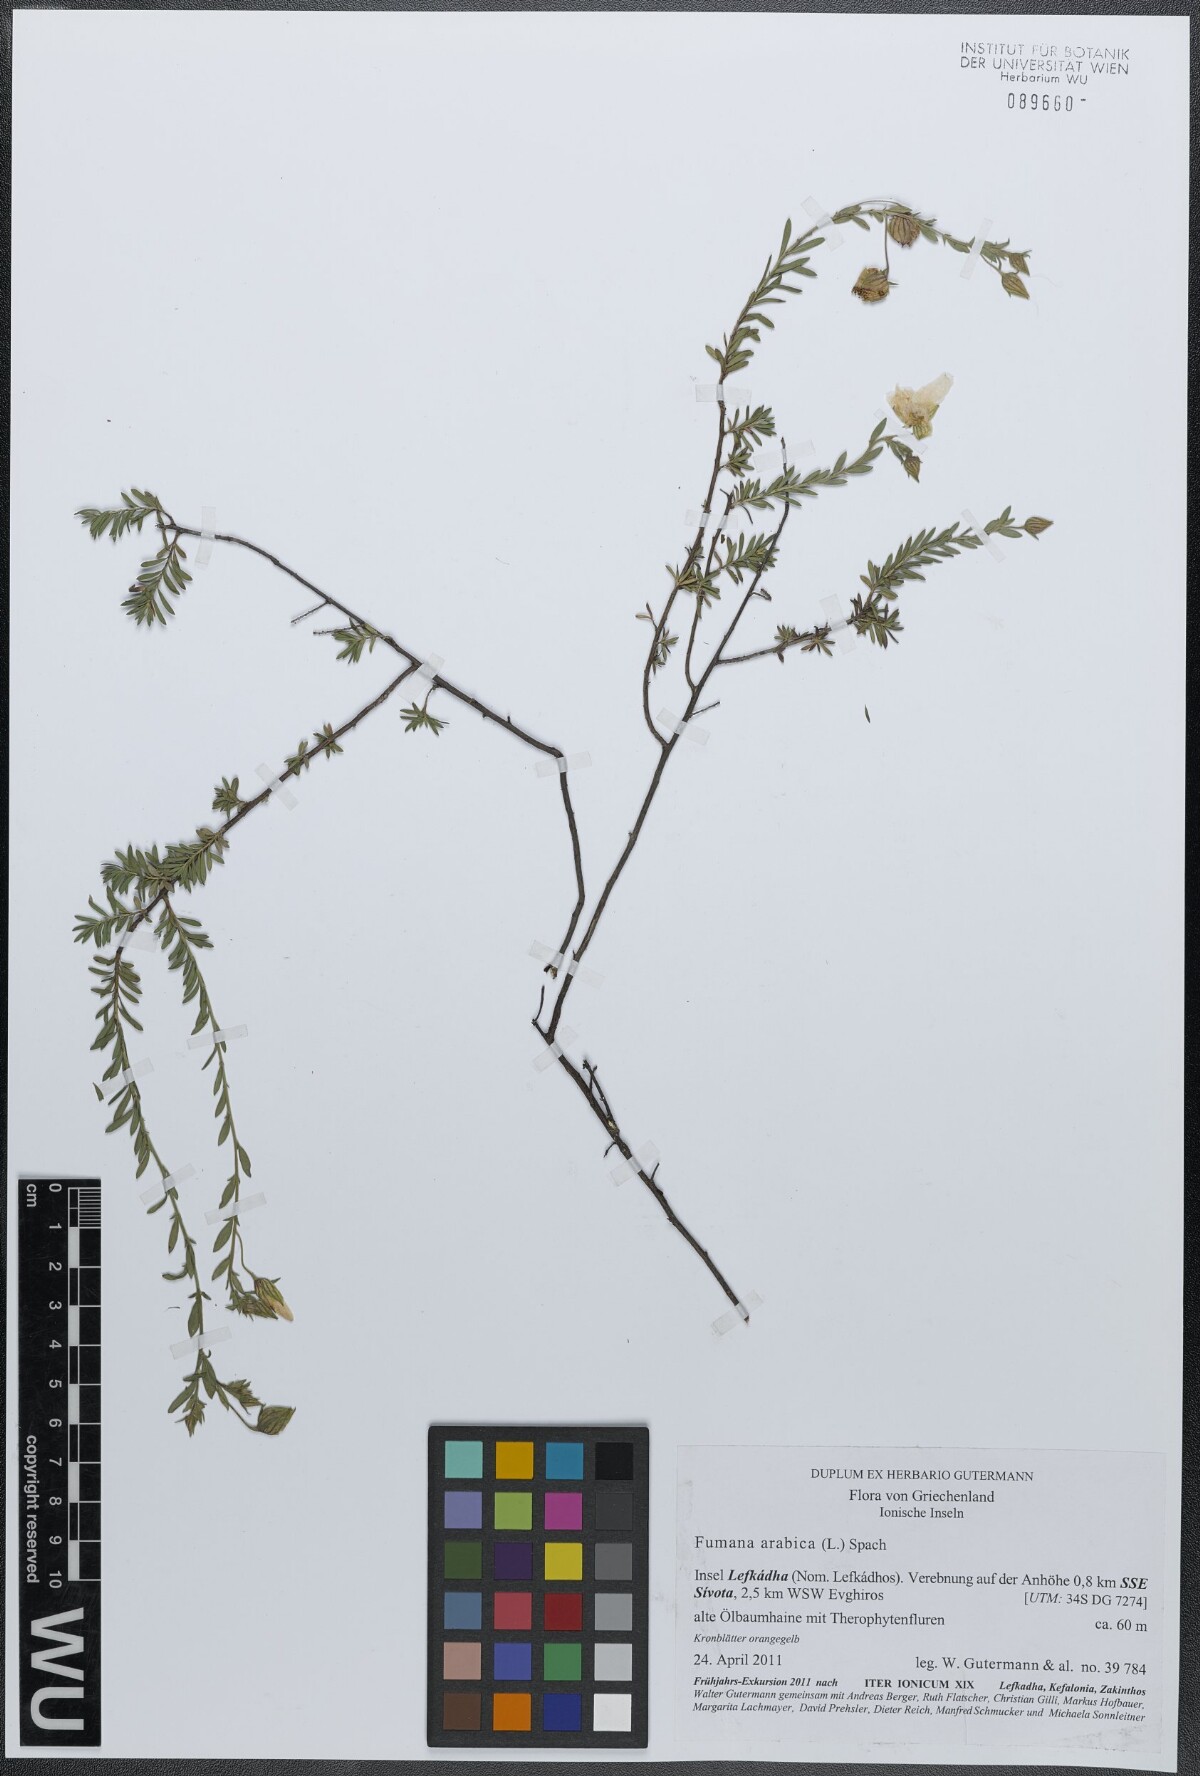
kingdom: Plantae
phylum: Tracheophyta
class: Magnoliopsida
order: Malvales
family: Cistaceae
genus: Fumana
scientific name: Fumana arabica
